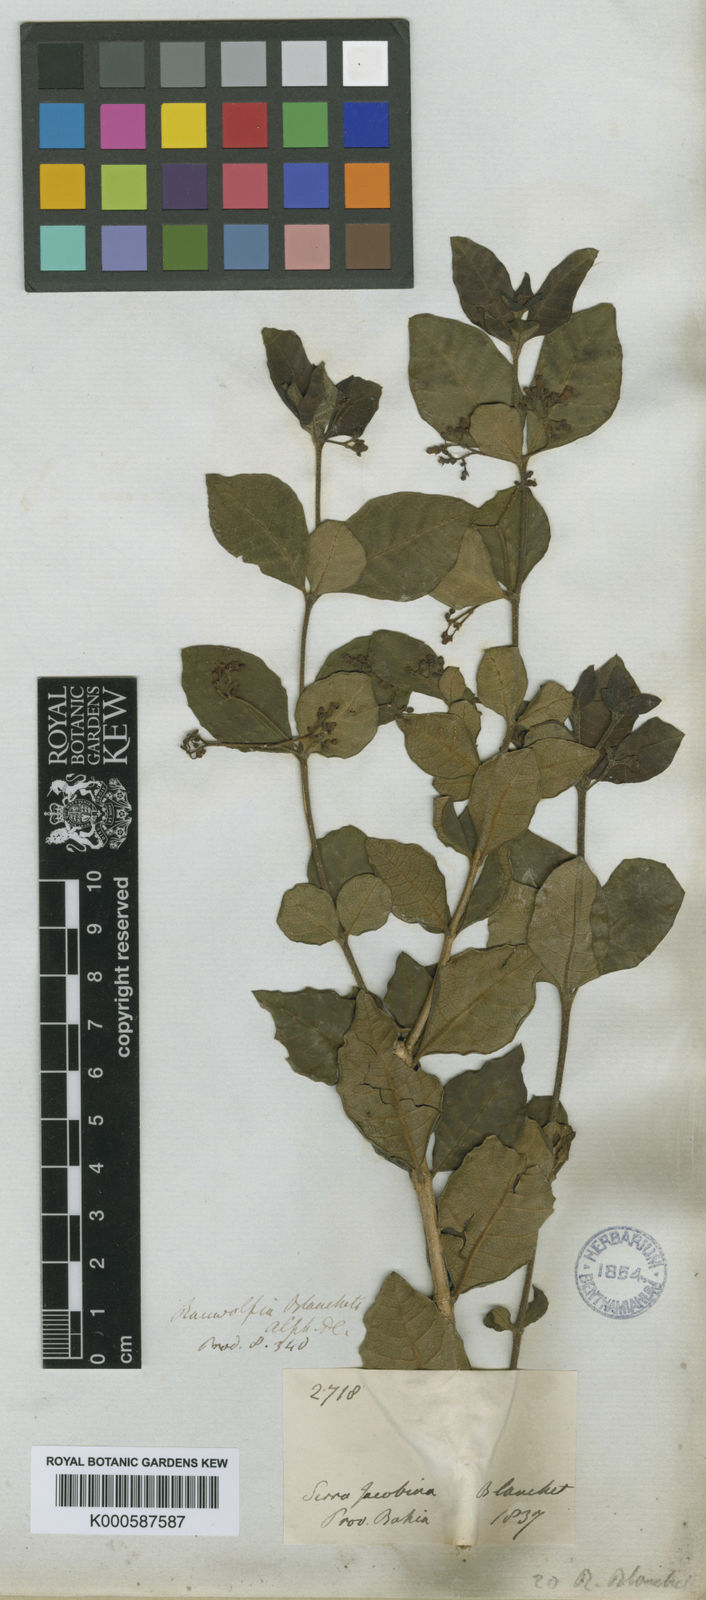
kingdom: Plantae
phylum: Tracheophyta
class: Magnoliopsida
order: Gentianales
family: Apocynaceae
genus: Rauvolfia
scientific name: Rauvolfia ligustrina
